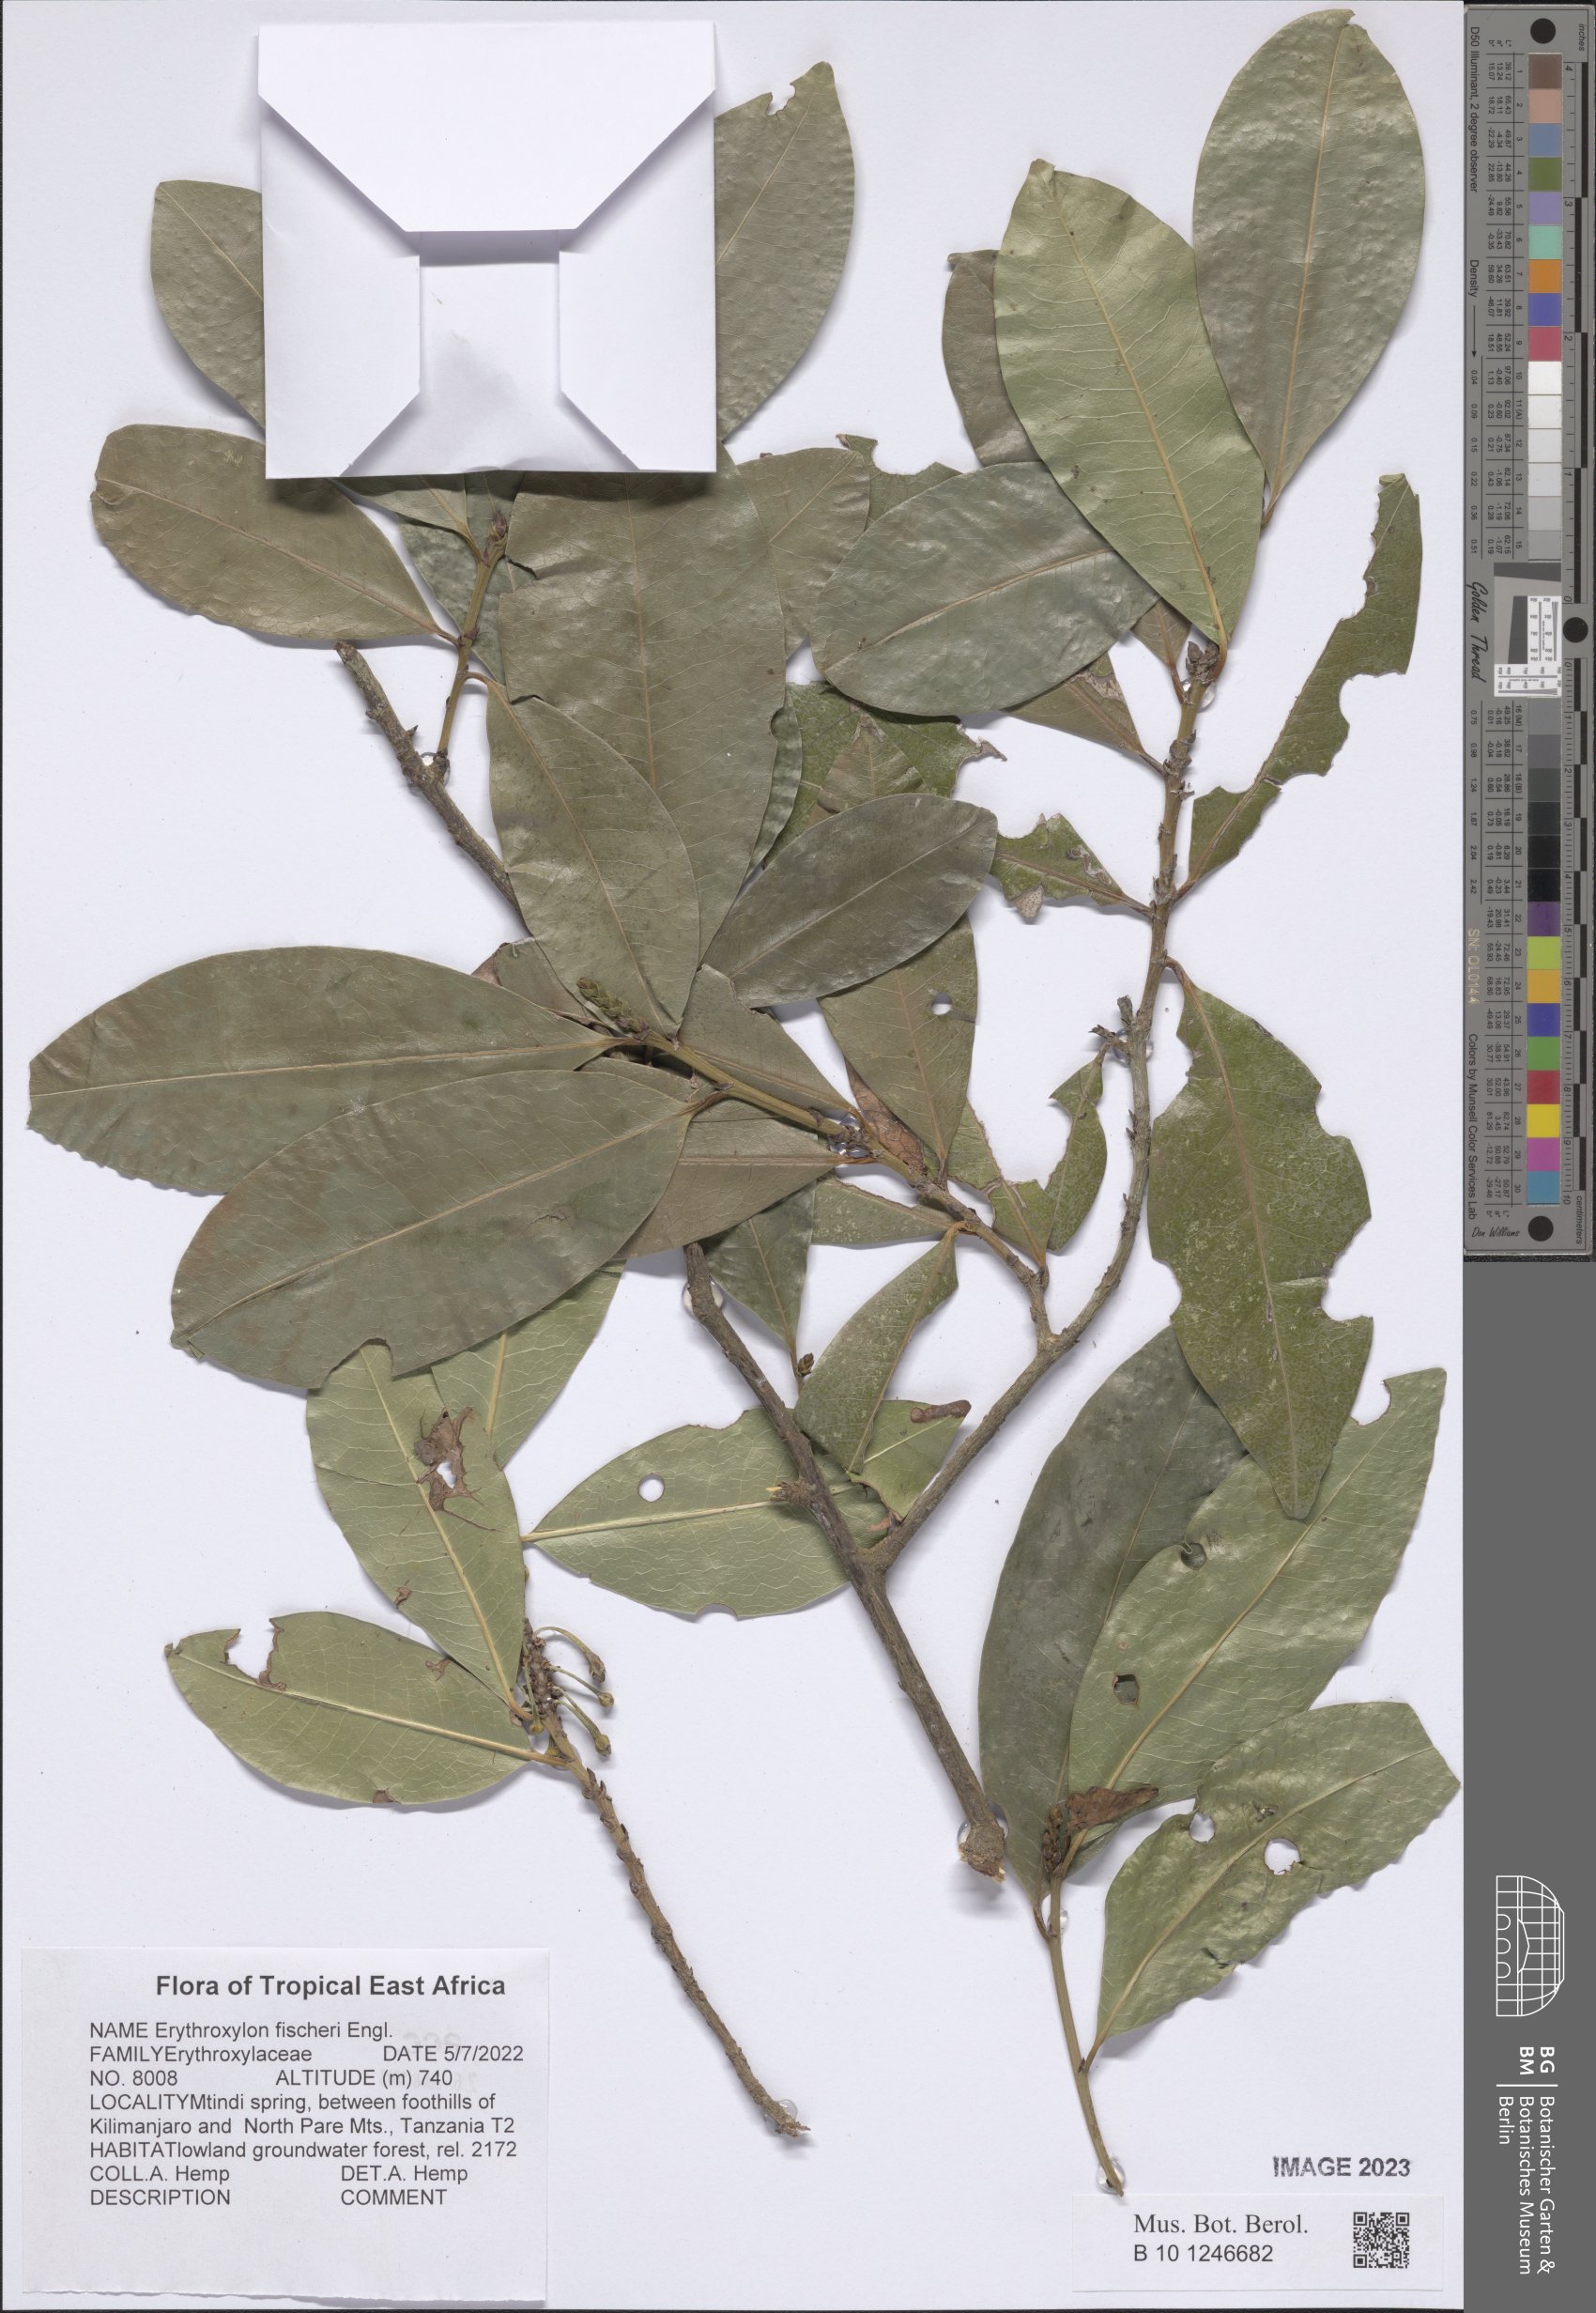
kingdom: Plantae
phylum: Tracheophyta
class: Magnoliopsida
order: Malpighiales
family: Euphorbiaceae
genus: Erythrococca
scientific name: Erythrococca fischeri
